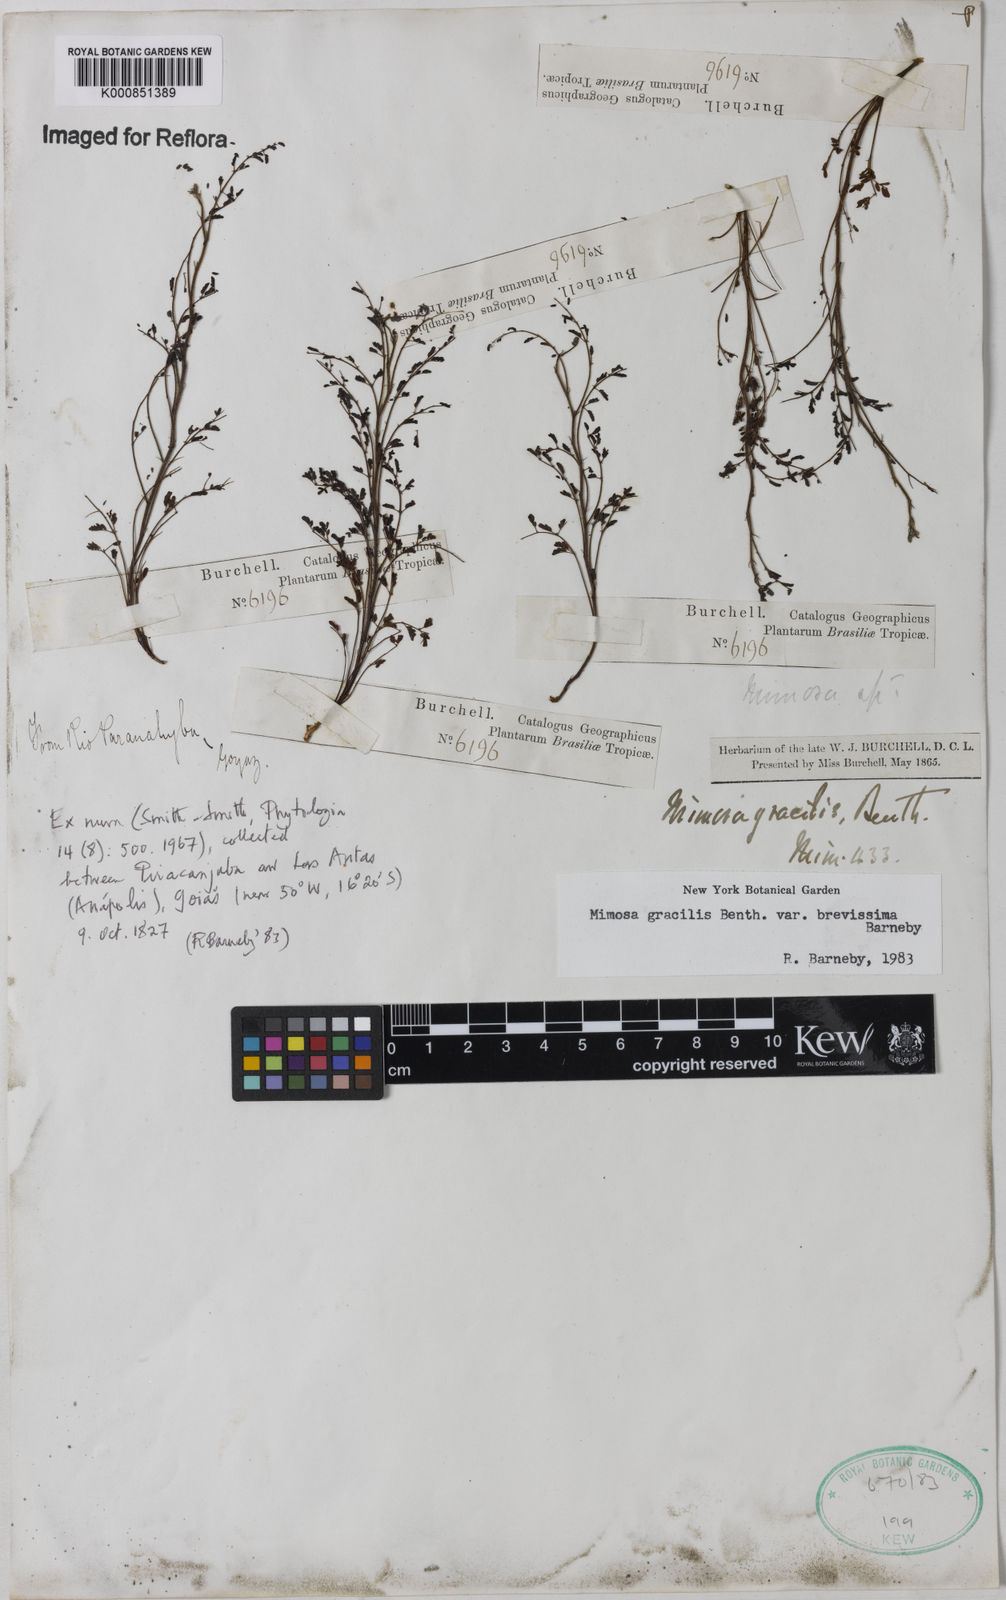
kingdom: Plantae
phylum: Tracheophyta
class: Magnoliopsida
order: Fabales
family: Fabaceae
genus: Mimosa
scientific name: Mimosa gracilis
